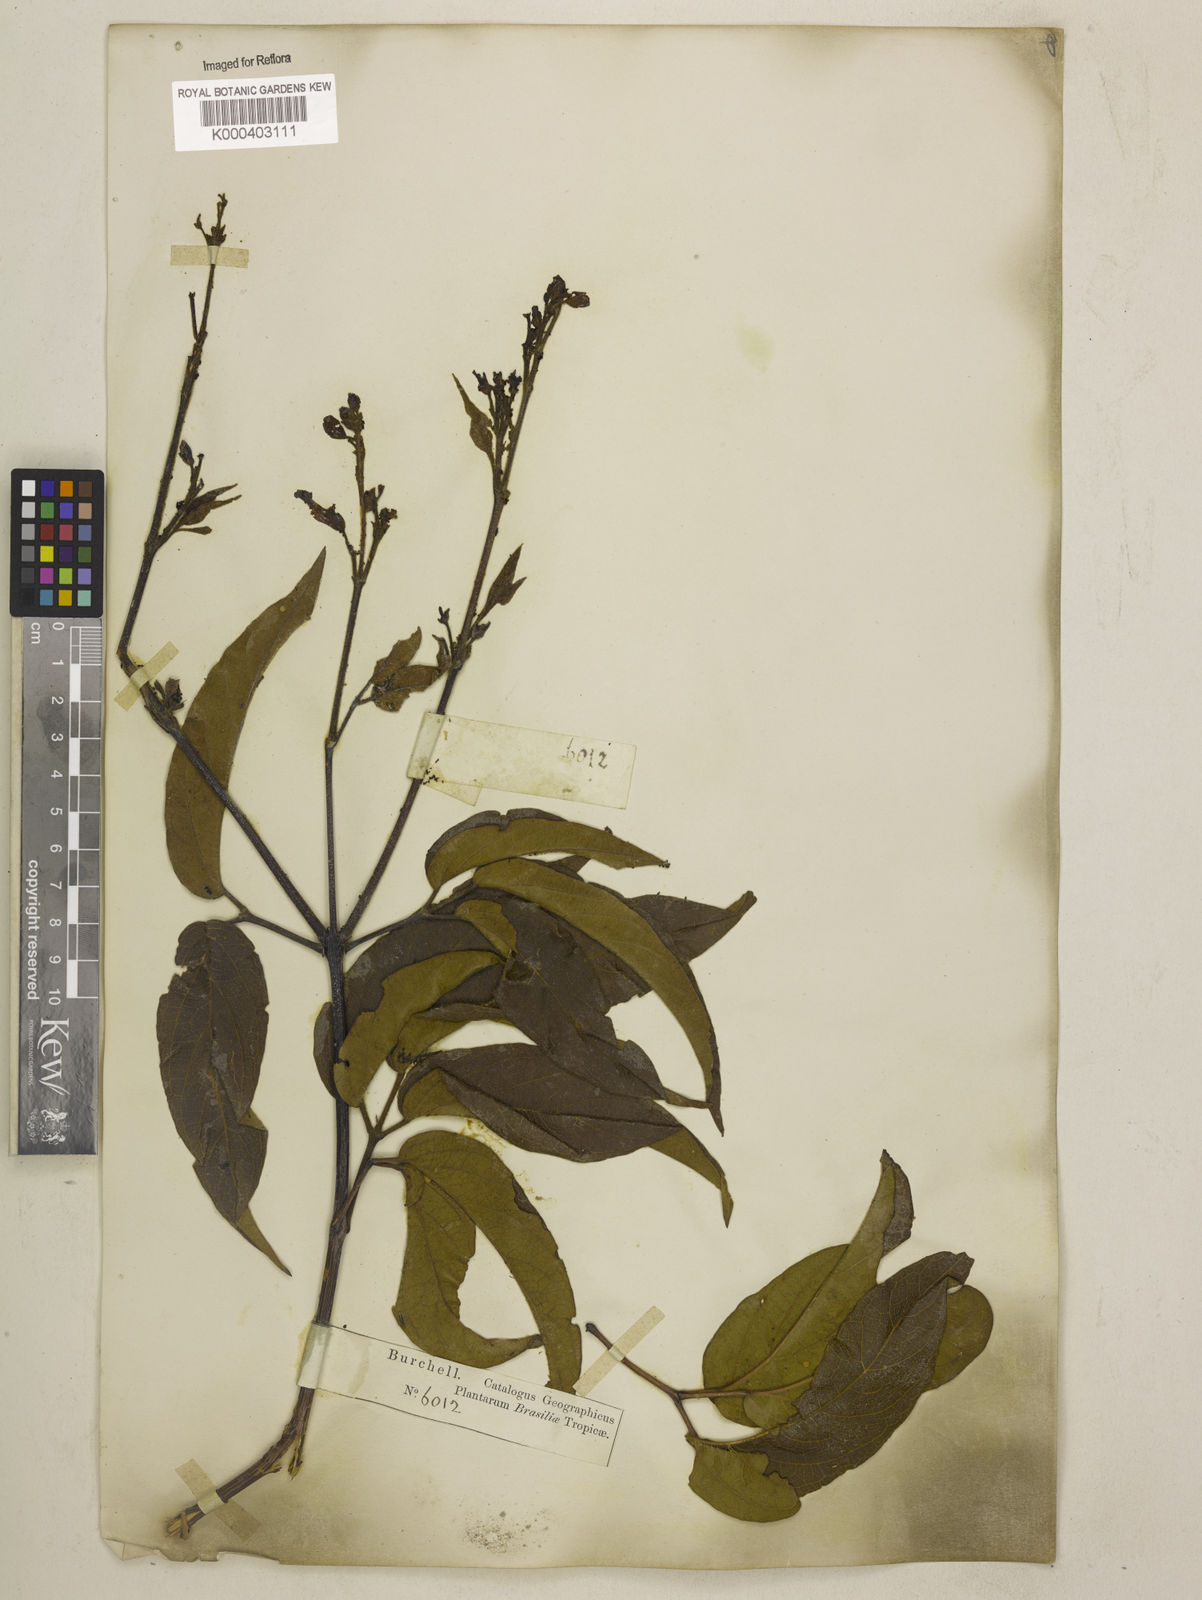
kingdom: Plantae
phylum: Tracheophyta
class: Magnoliopsida
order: Lamiales
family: Bignoniaceae
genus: Cuspidaria
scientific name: Cuspidaria sceptrum
